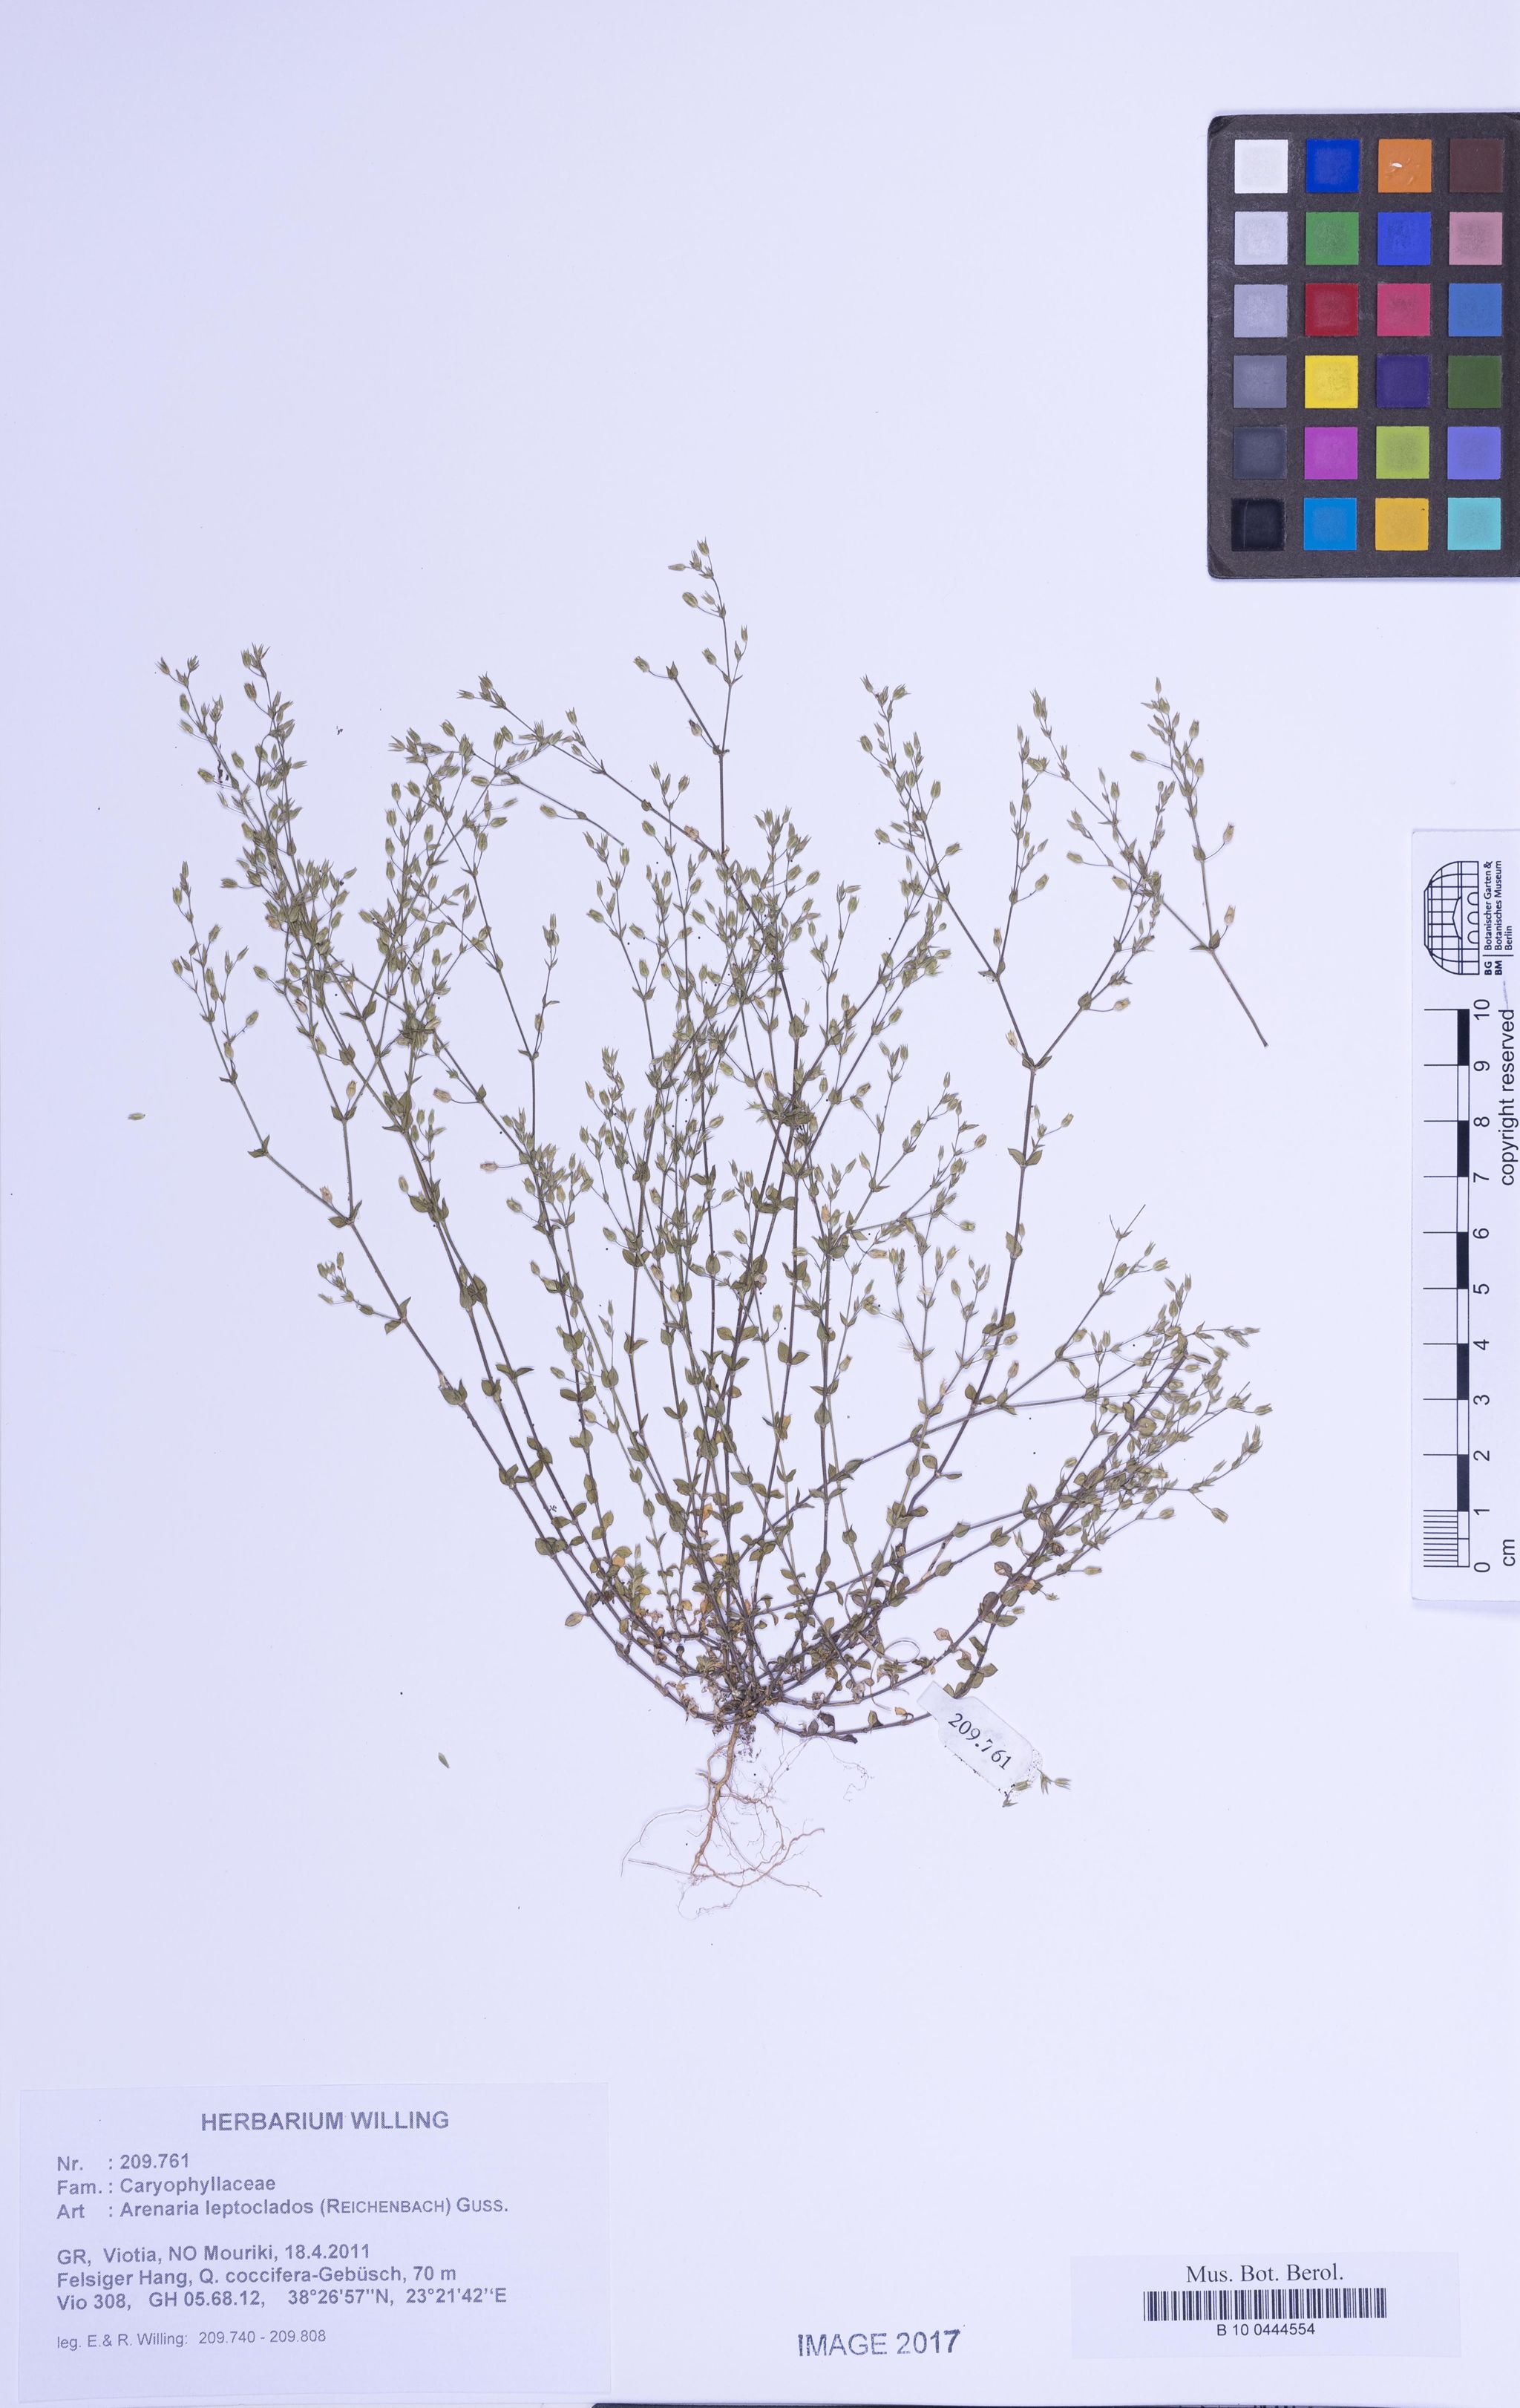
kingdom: Plantae
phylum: Tracheophyta
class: Magnoliopsida
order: Caryophyllales
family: Caryophyllaceae
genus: Arenaria
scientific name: Arenaria leptoclados
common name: Thyme-leaved sandwort
